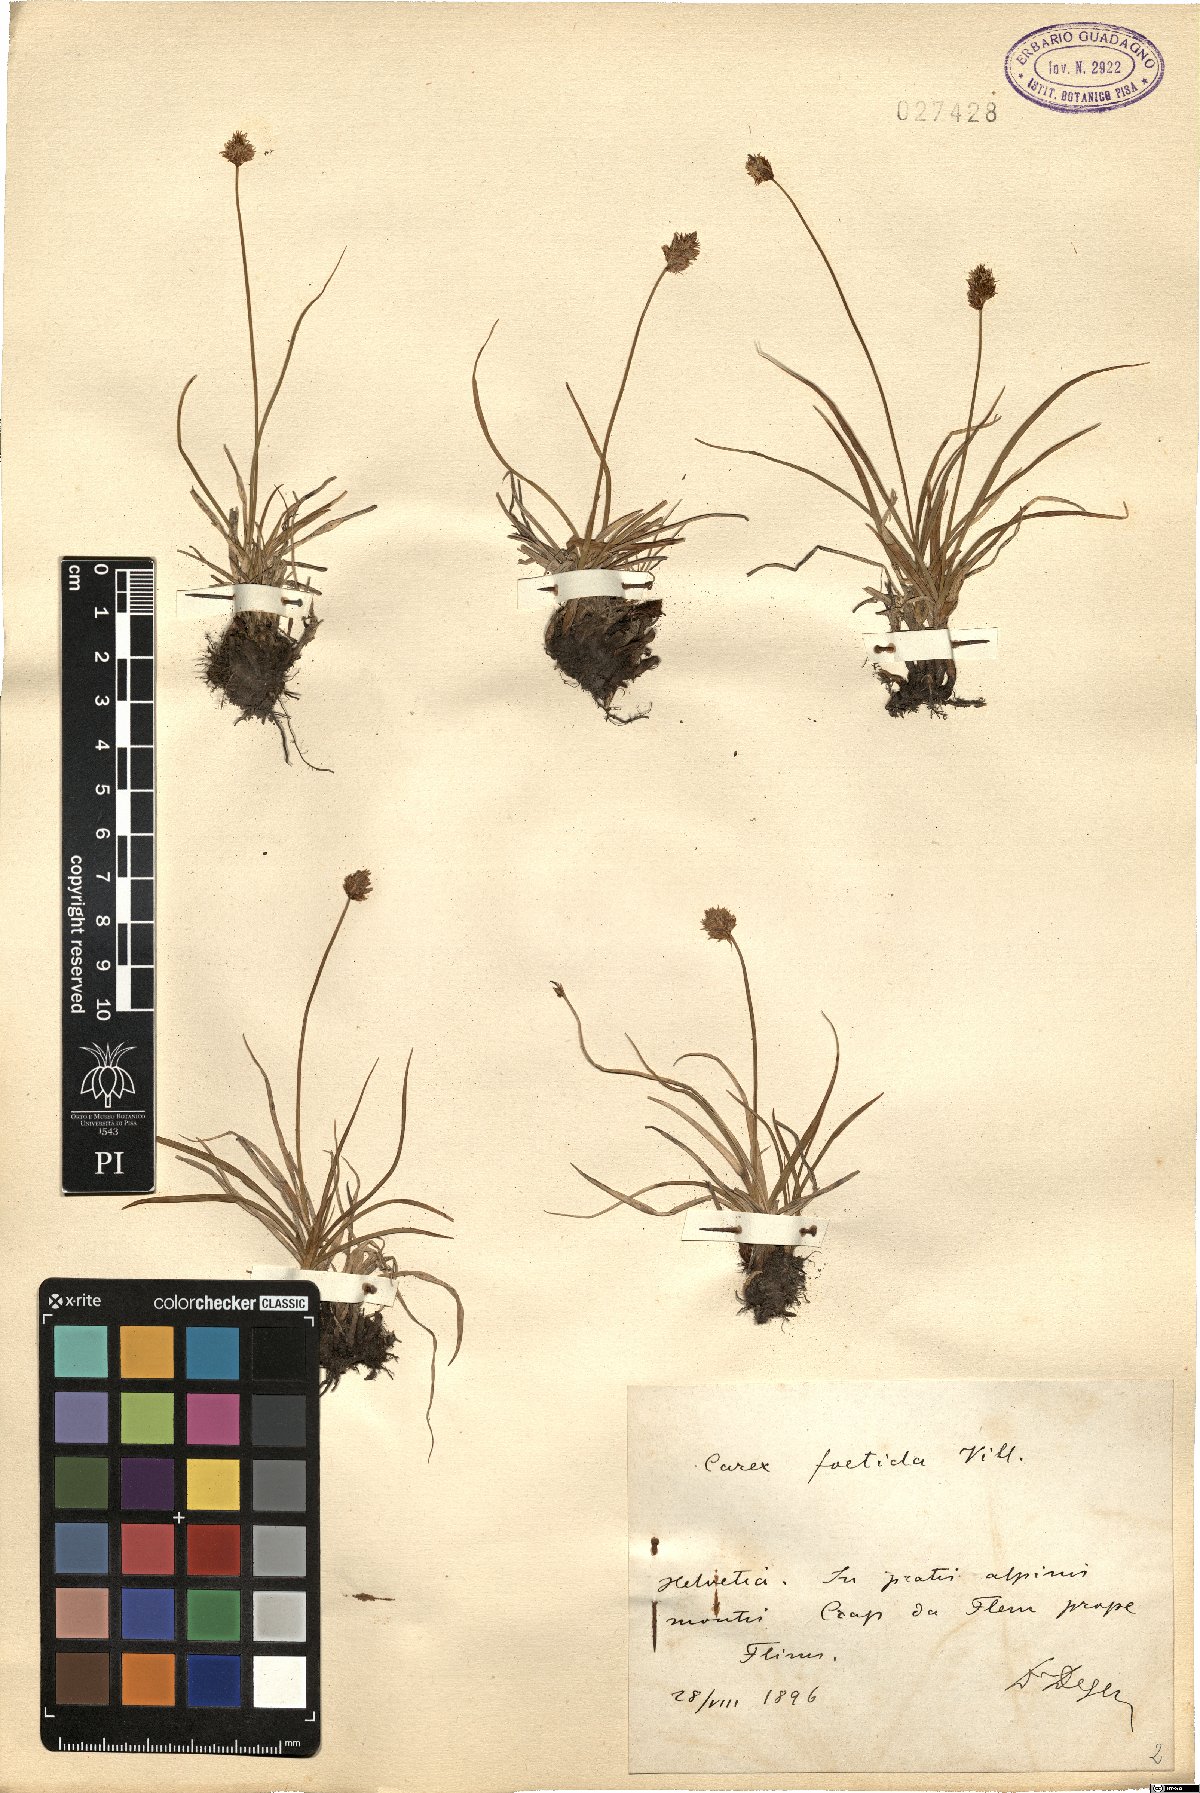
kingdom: Plantae
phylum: Tracheophyta
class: Liliopsida
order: Poales
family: Cyperaceae
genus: Carex
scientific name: Carex foetida
